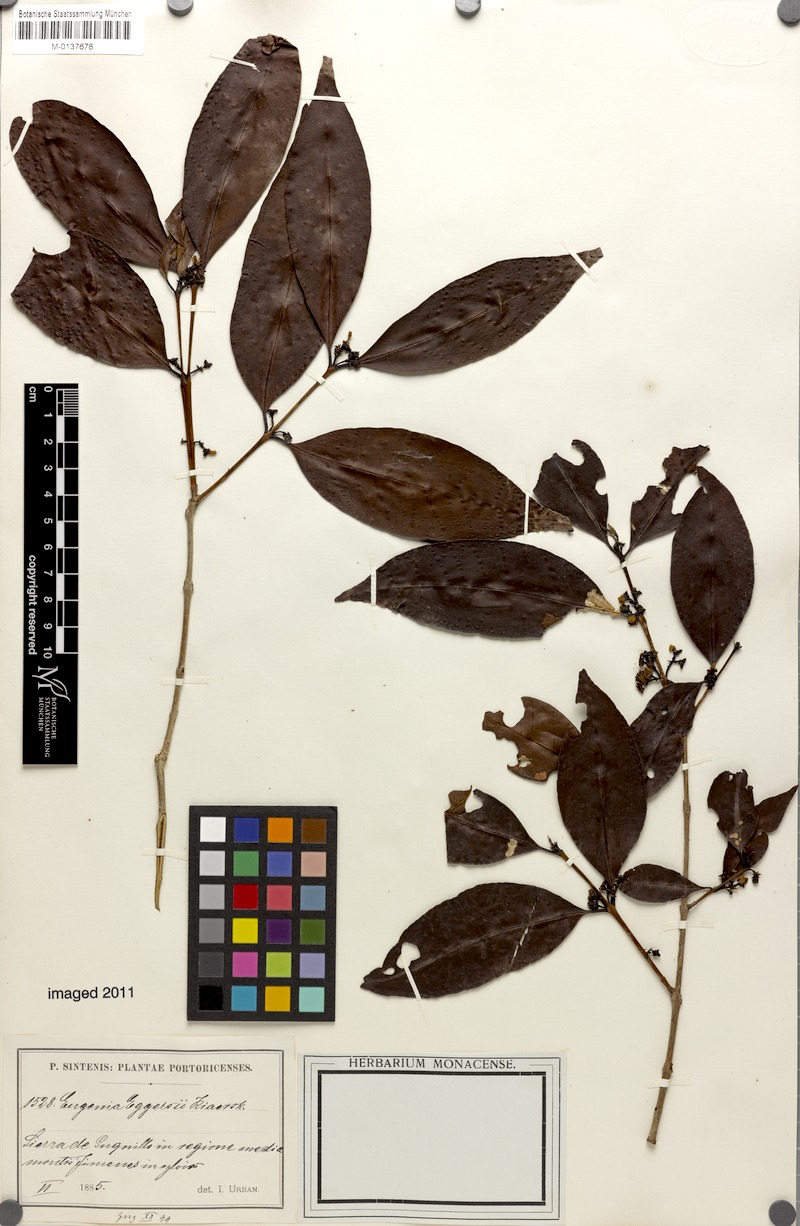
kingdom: Plantae
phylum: Tracheophyta
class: Magnoliopsida
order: Myrtales
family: Myrtaceae
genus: Eugenia
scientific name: Eugenia eggersii
